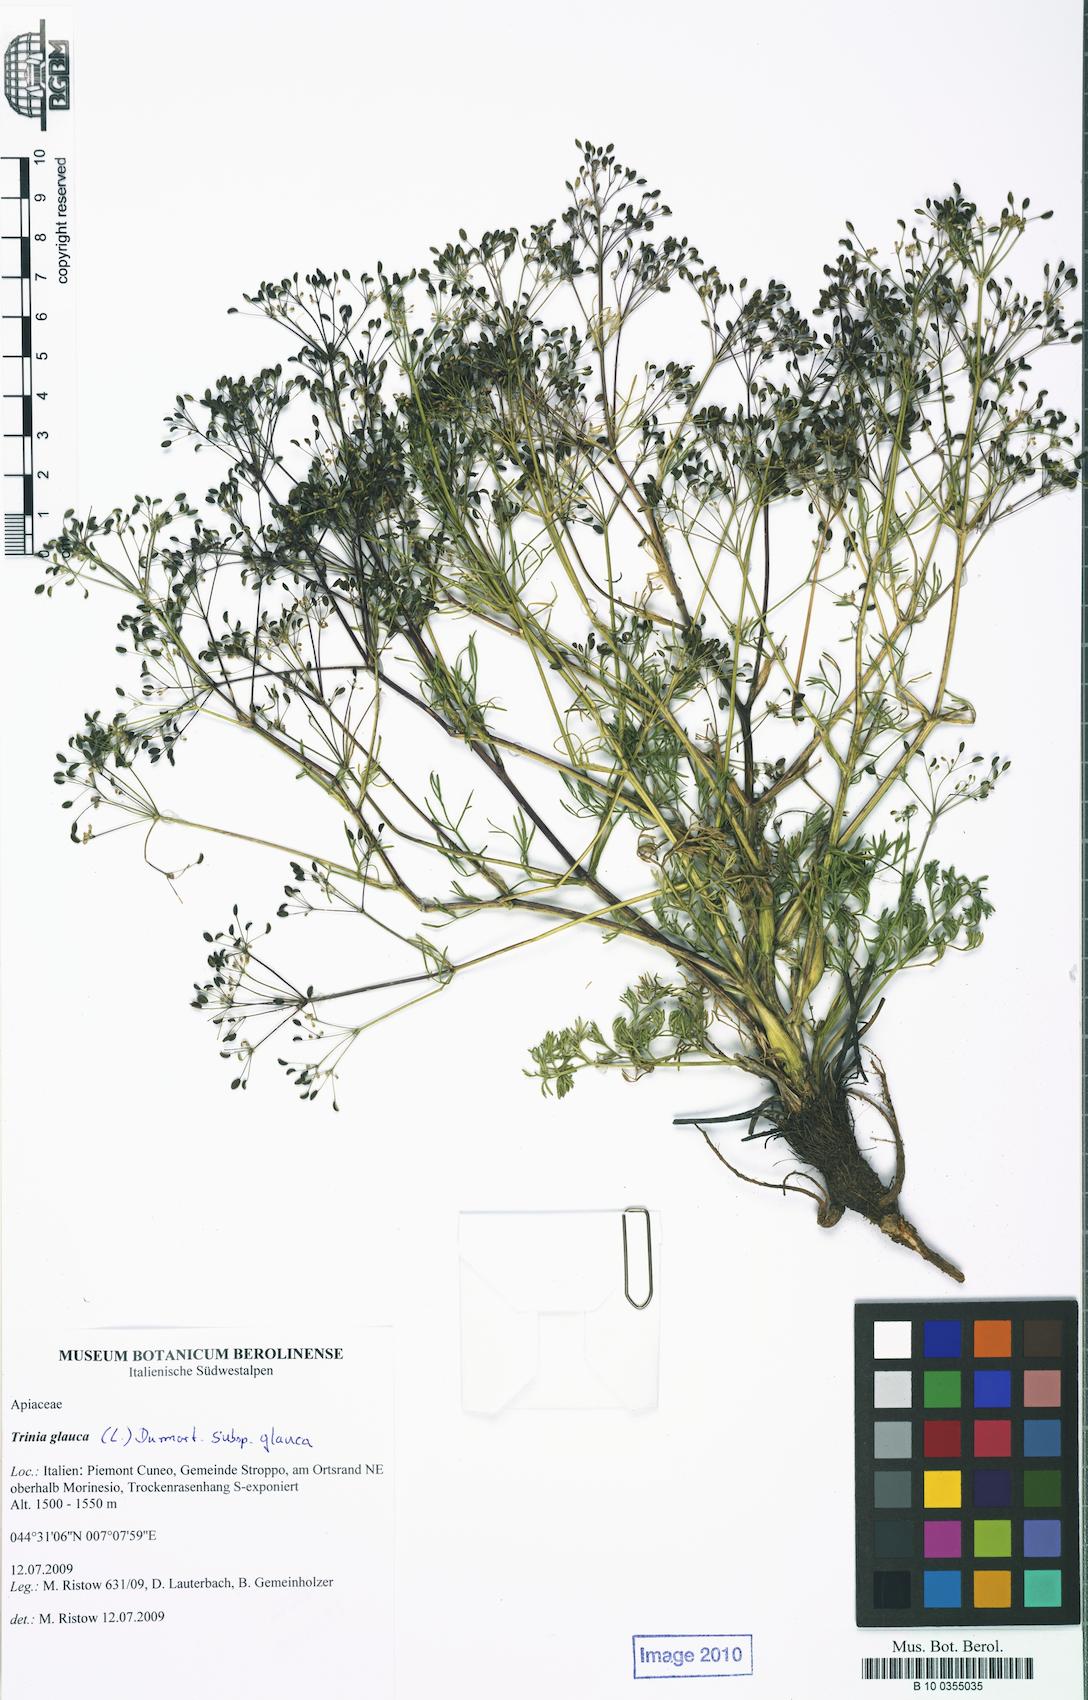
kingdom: Plantae
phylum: Tracheophyta
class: Magnoliopsida
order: Apiales
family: Apiaceae
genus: Trinia
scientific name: Trinia glauca
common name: Honewort
